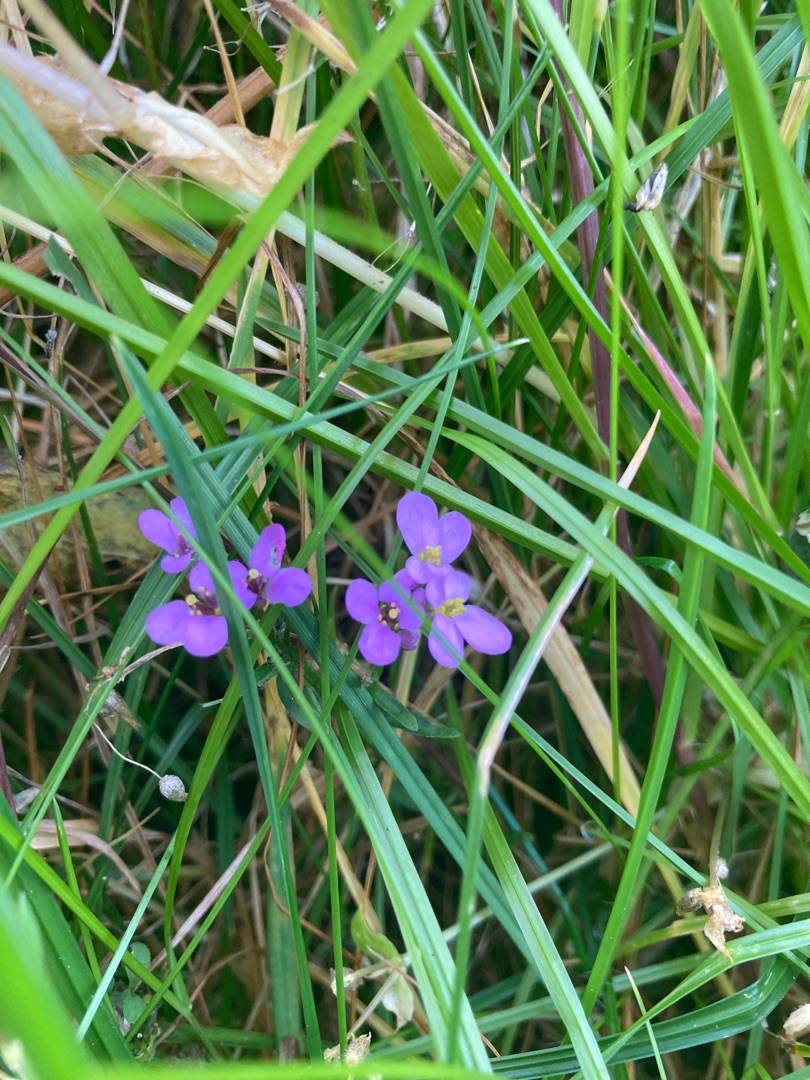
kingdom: Plantae
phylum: Tracheophyta
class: Magnoliopsida
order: Brassicales
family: Brassicaceae
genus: Iberis
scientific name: Iberis umbellata
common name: Skærm-sløjfeblomst
